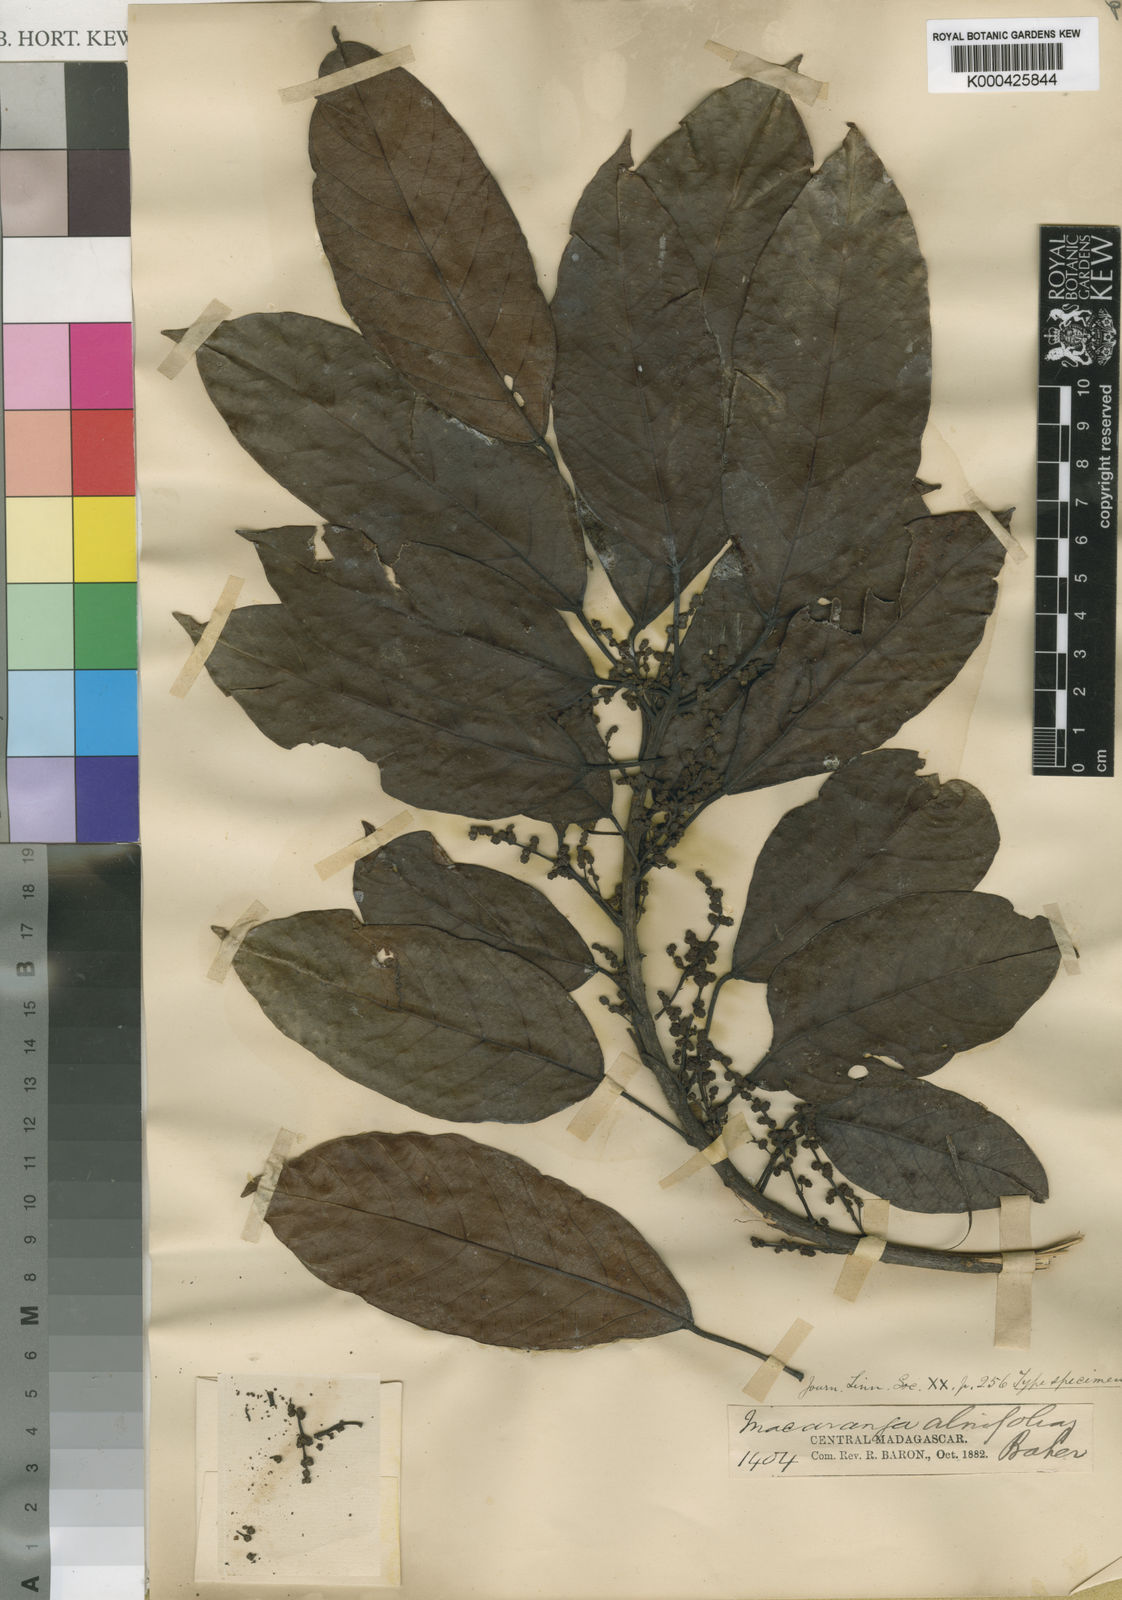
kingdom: Plantae
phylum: Tracheophyta
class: Magnoliopsida
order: Malpighiales
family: Euphorbiaceae
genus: Macaranga
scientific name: Macaranga alnifolia
